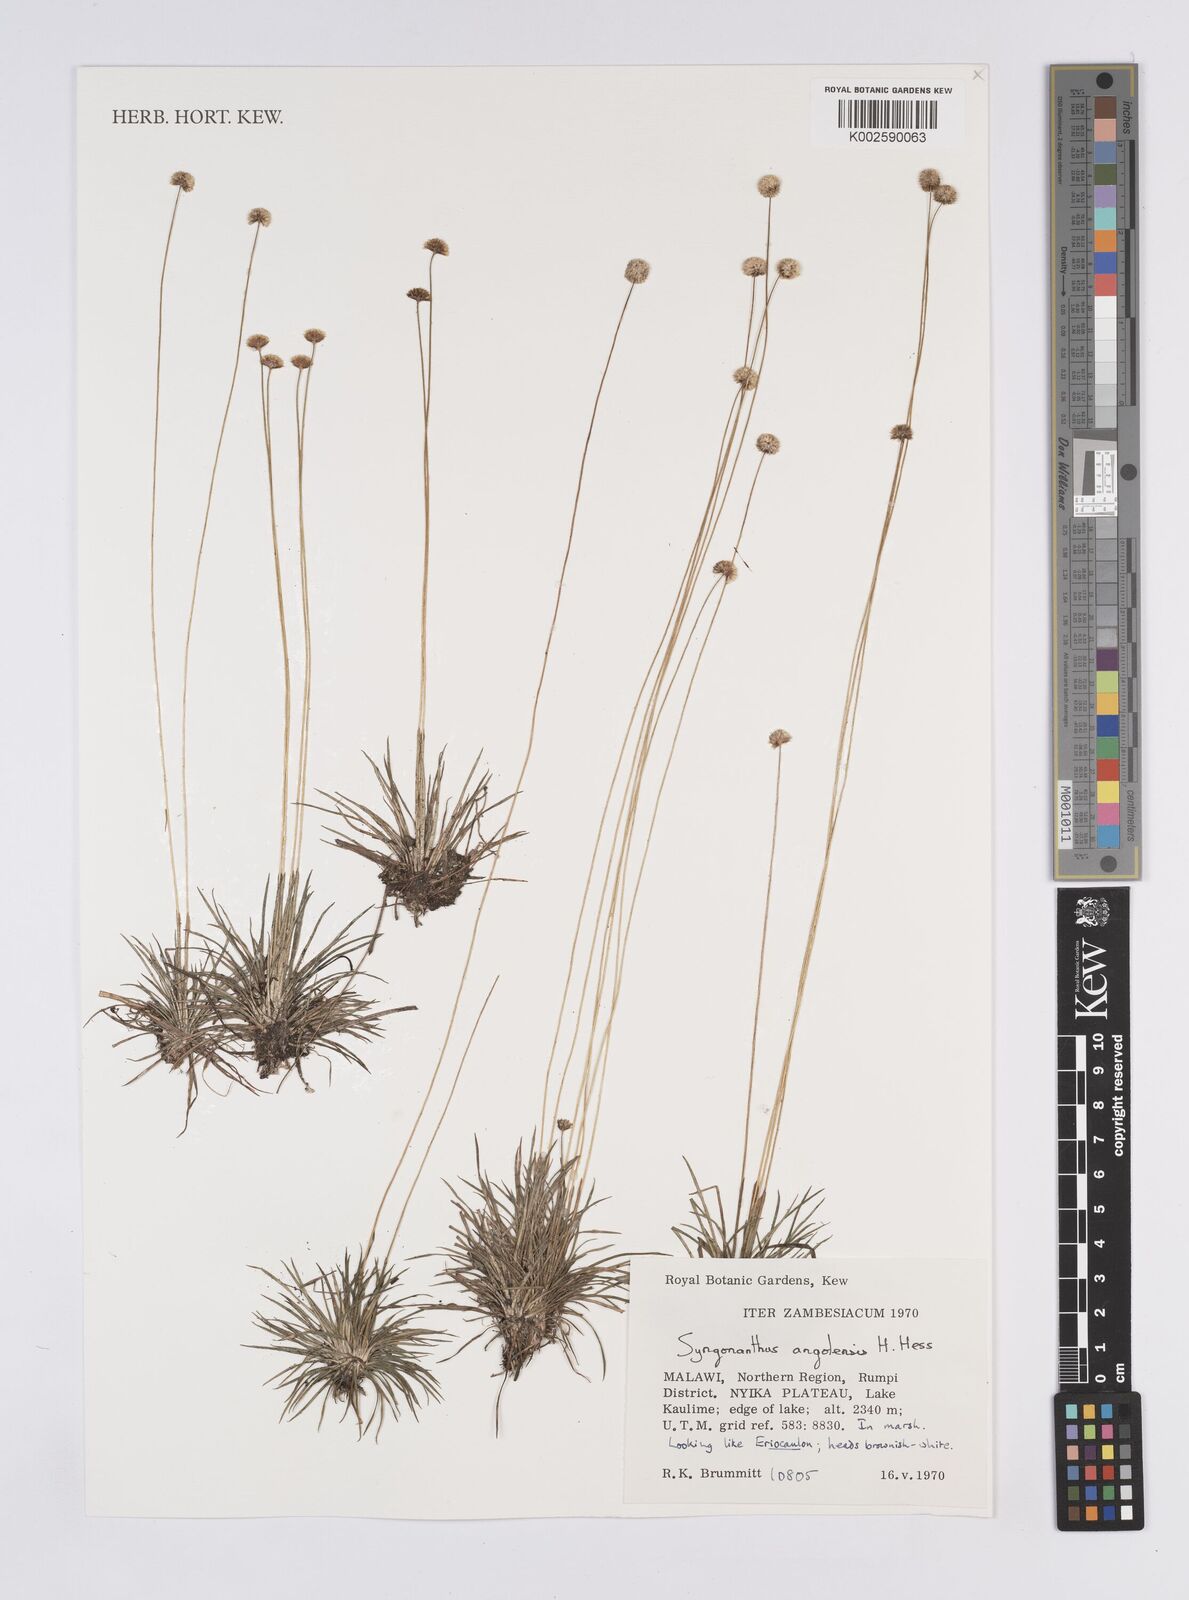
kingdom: Plantae
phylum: Tracheophyta
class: Liliopsida
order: Poales
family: Eriocaulaceae
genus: Syngonanthus
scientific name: Syngonanthus angolensis
